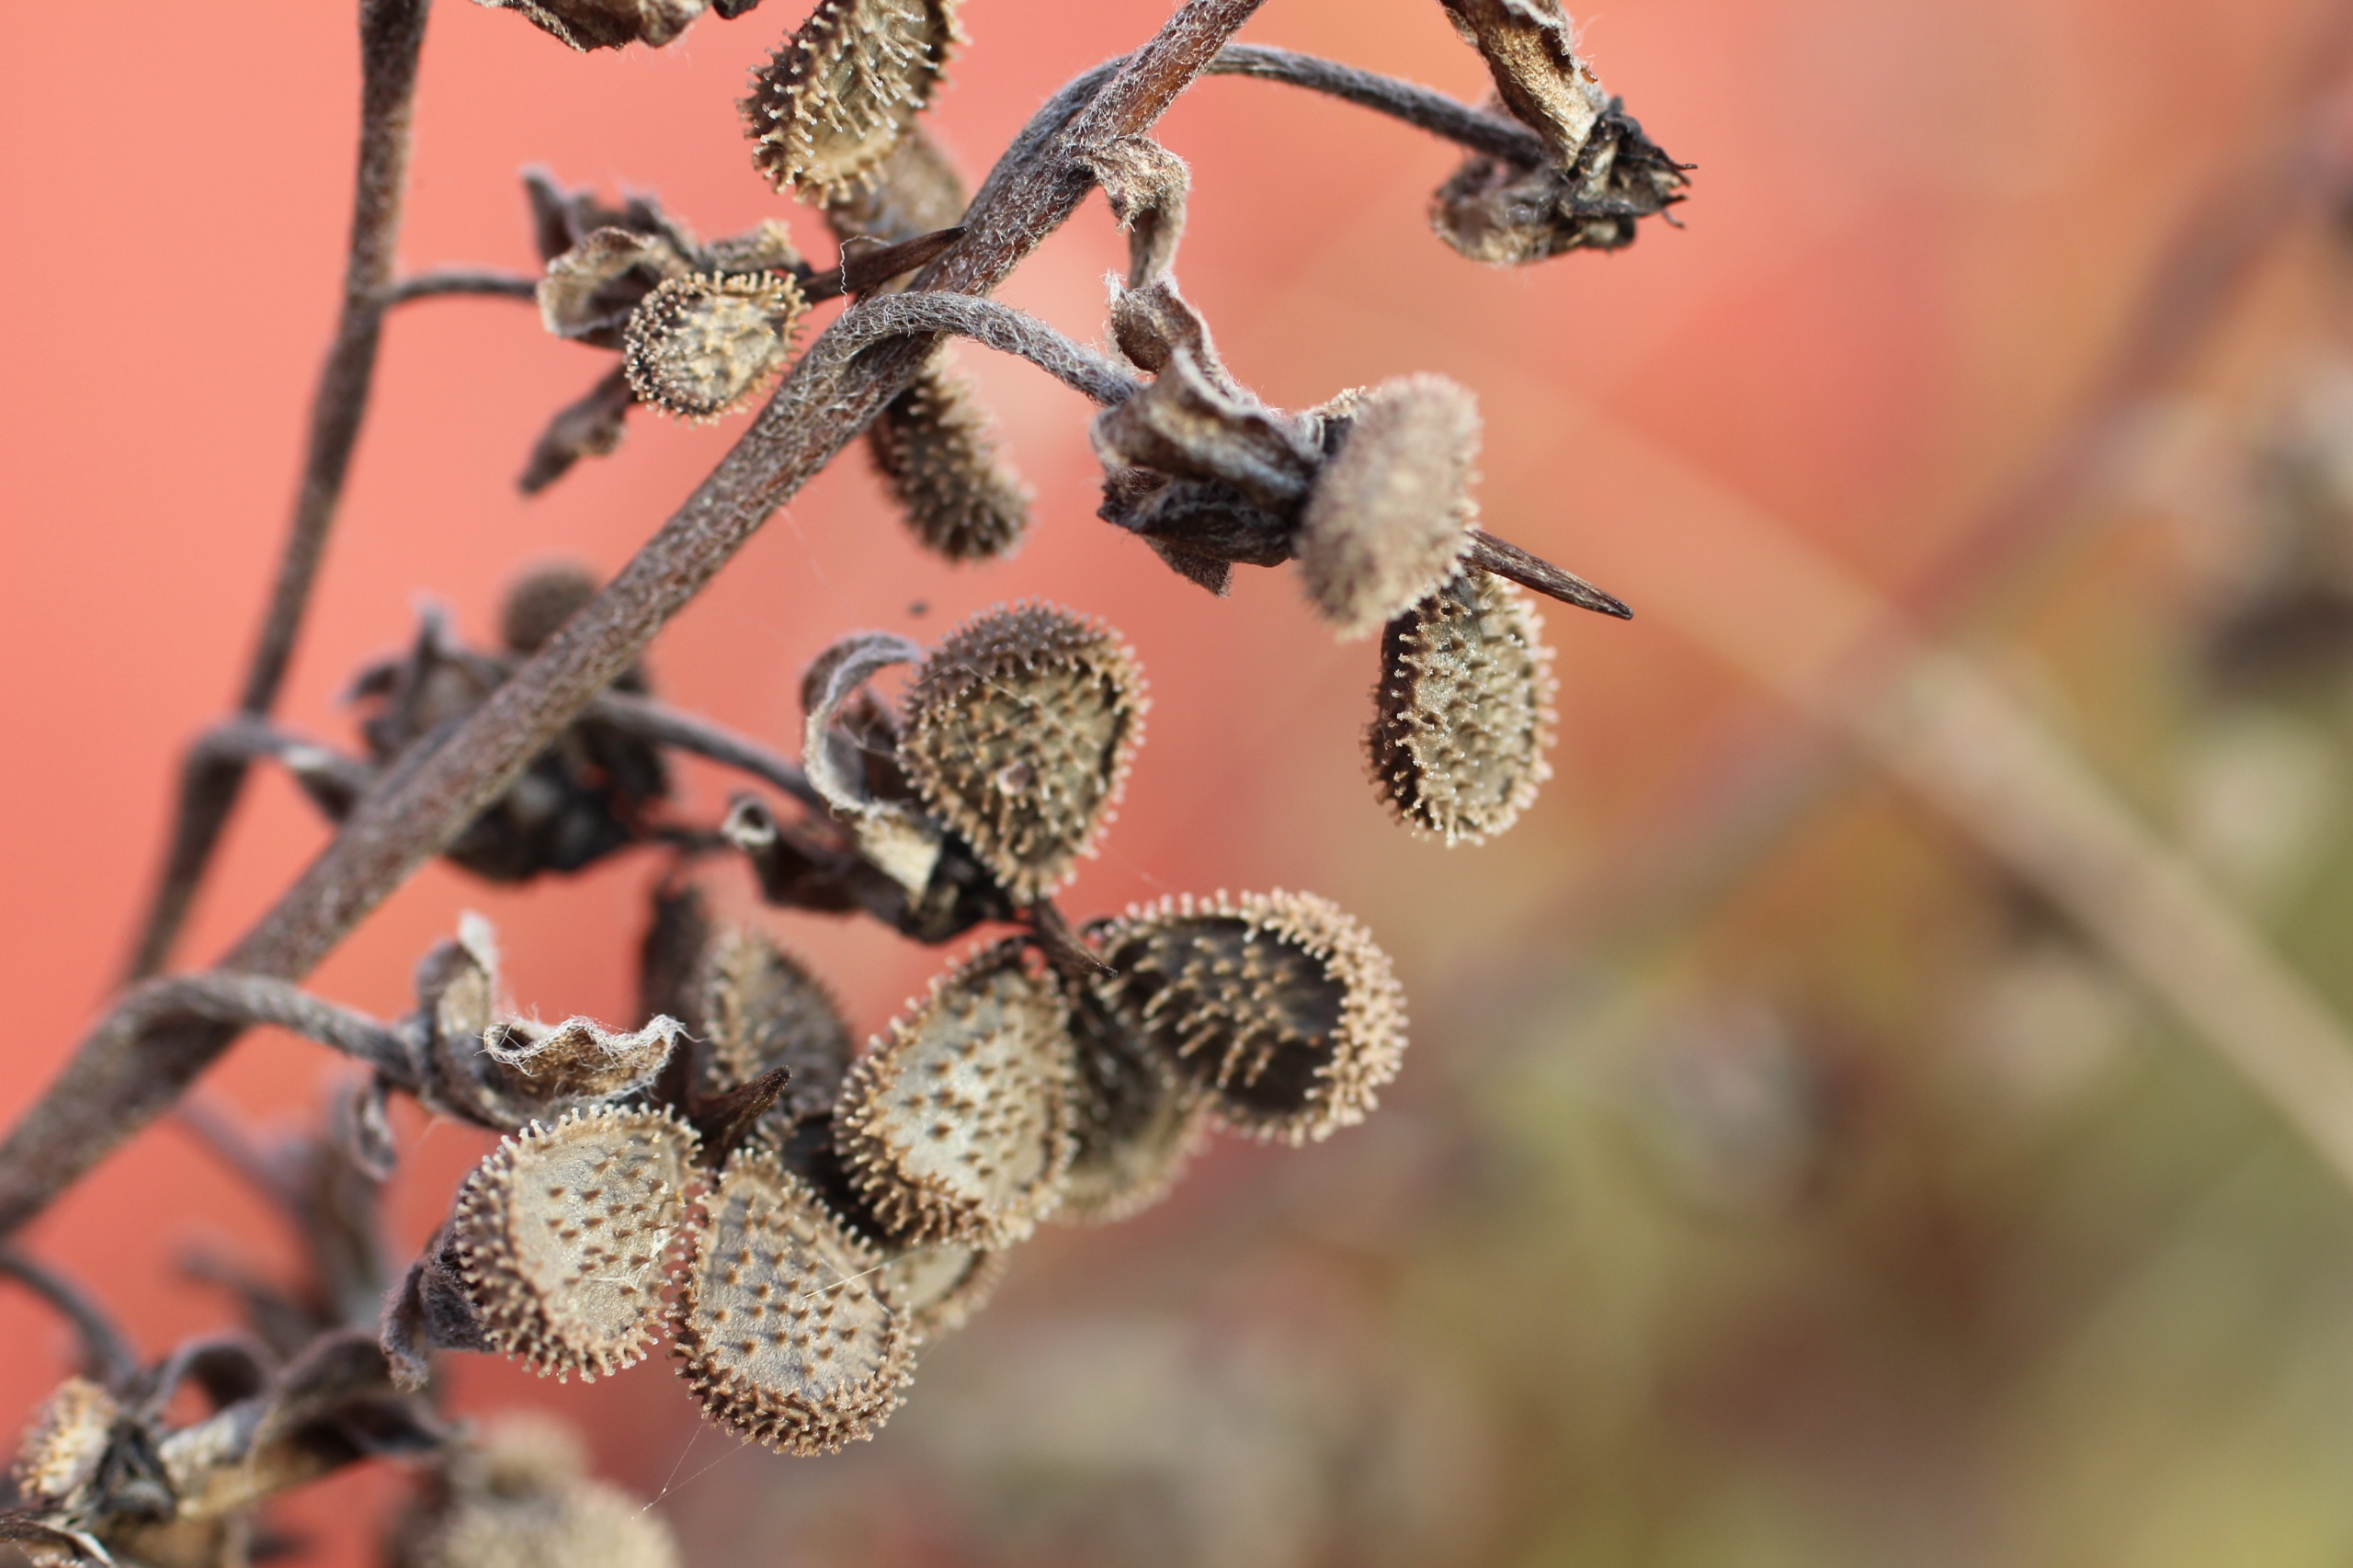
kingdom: Plantae
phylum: Tracheophyta
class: Magnoliopsida
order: Boraginales
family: Boraginaceae
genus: Cynoglossum
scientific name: Cynoglossum officinale
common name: Hundetunge
